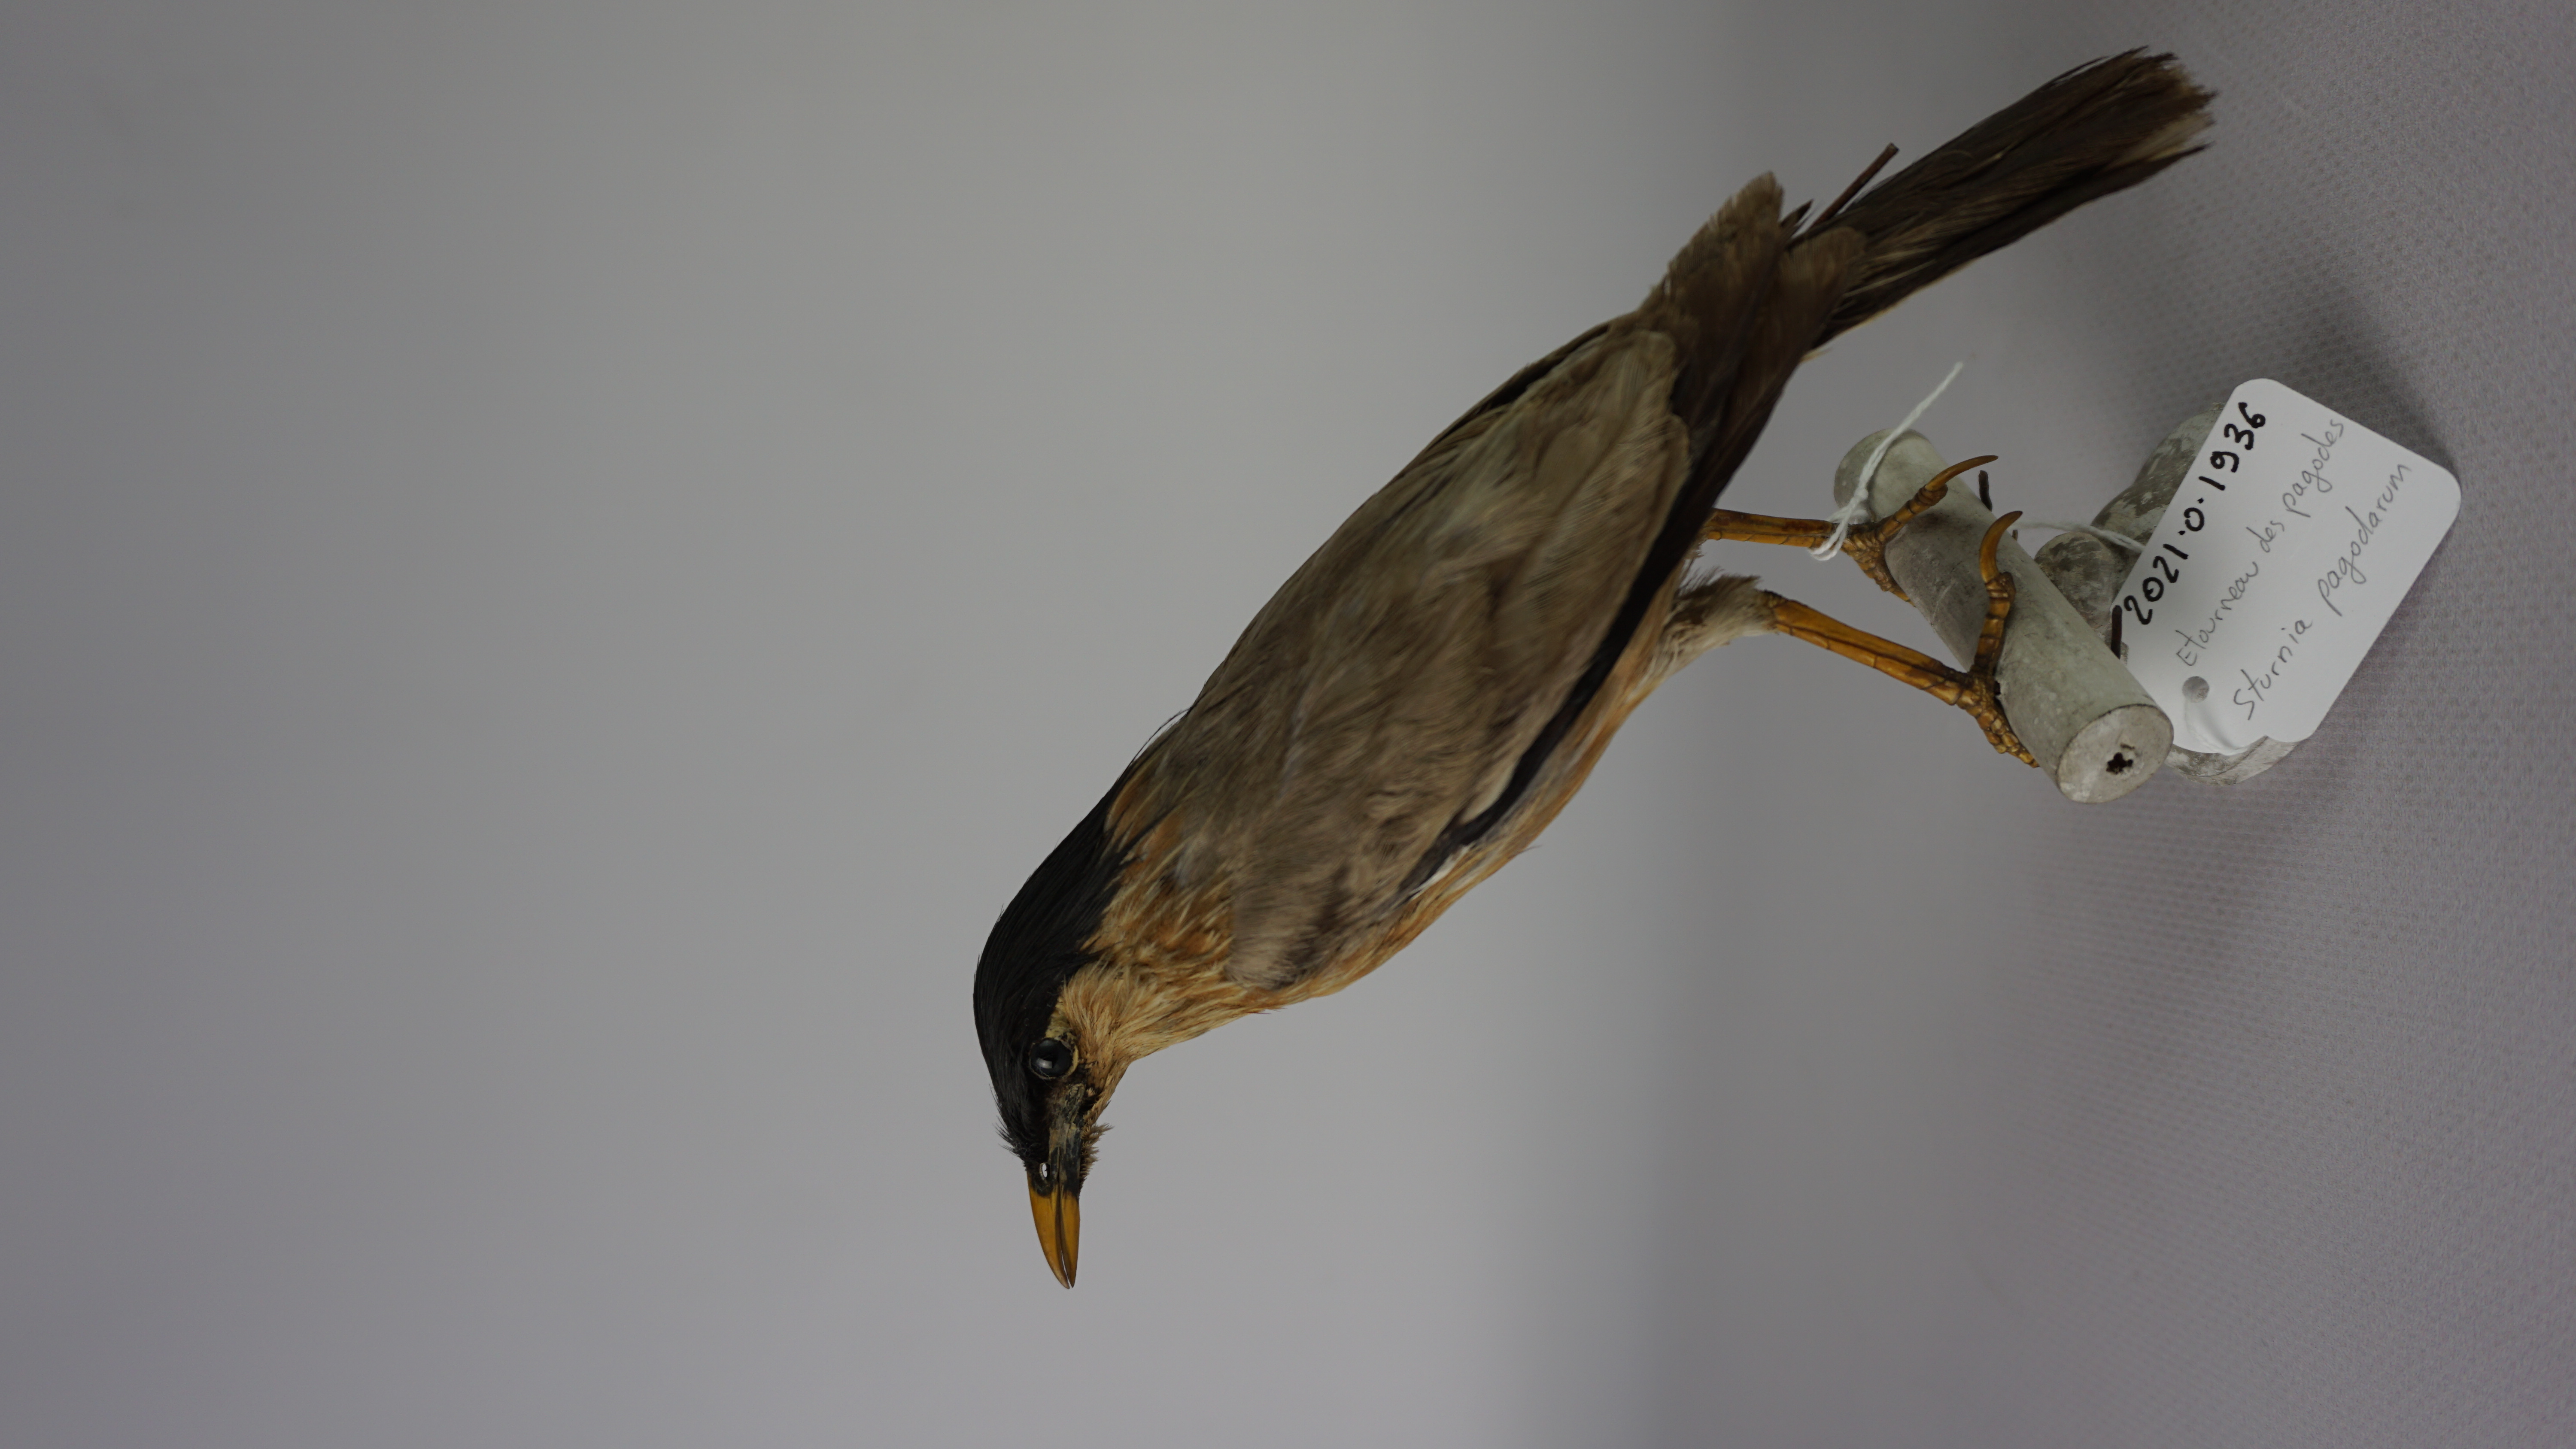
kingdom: Animalia
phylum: Chordata
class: Aves
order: Passeriformes
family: Sturnidae
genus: Sturnia
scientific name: Sturnia pagodarum
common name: Brahminy starling
